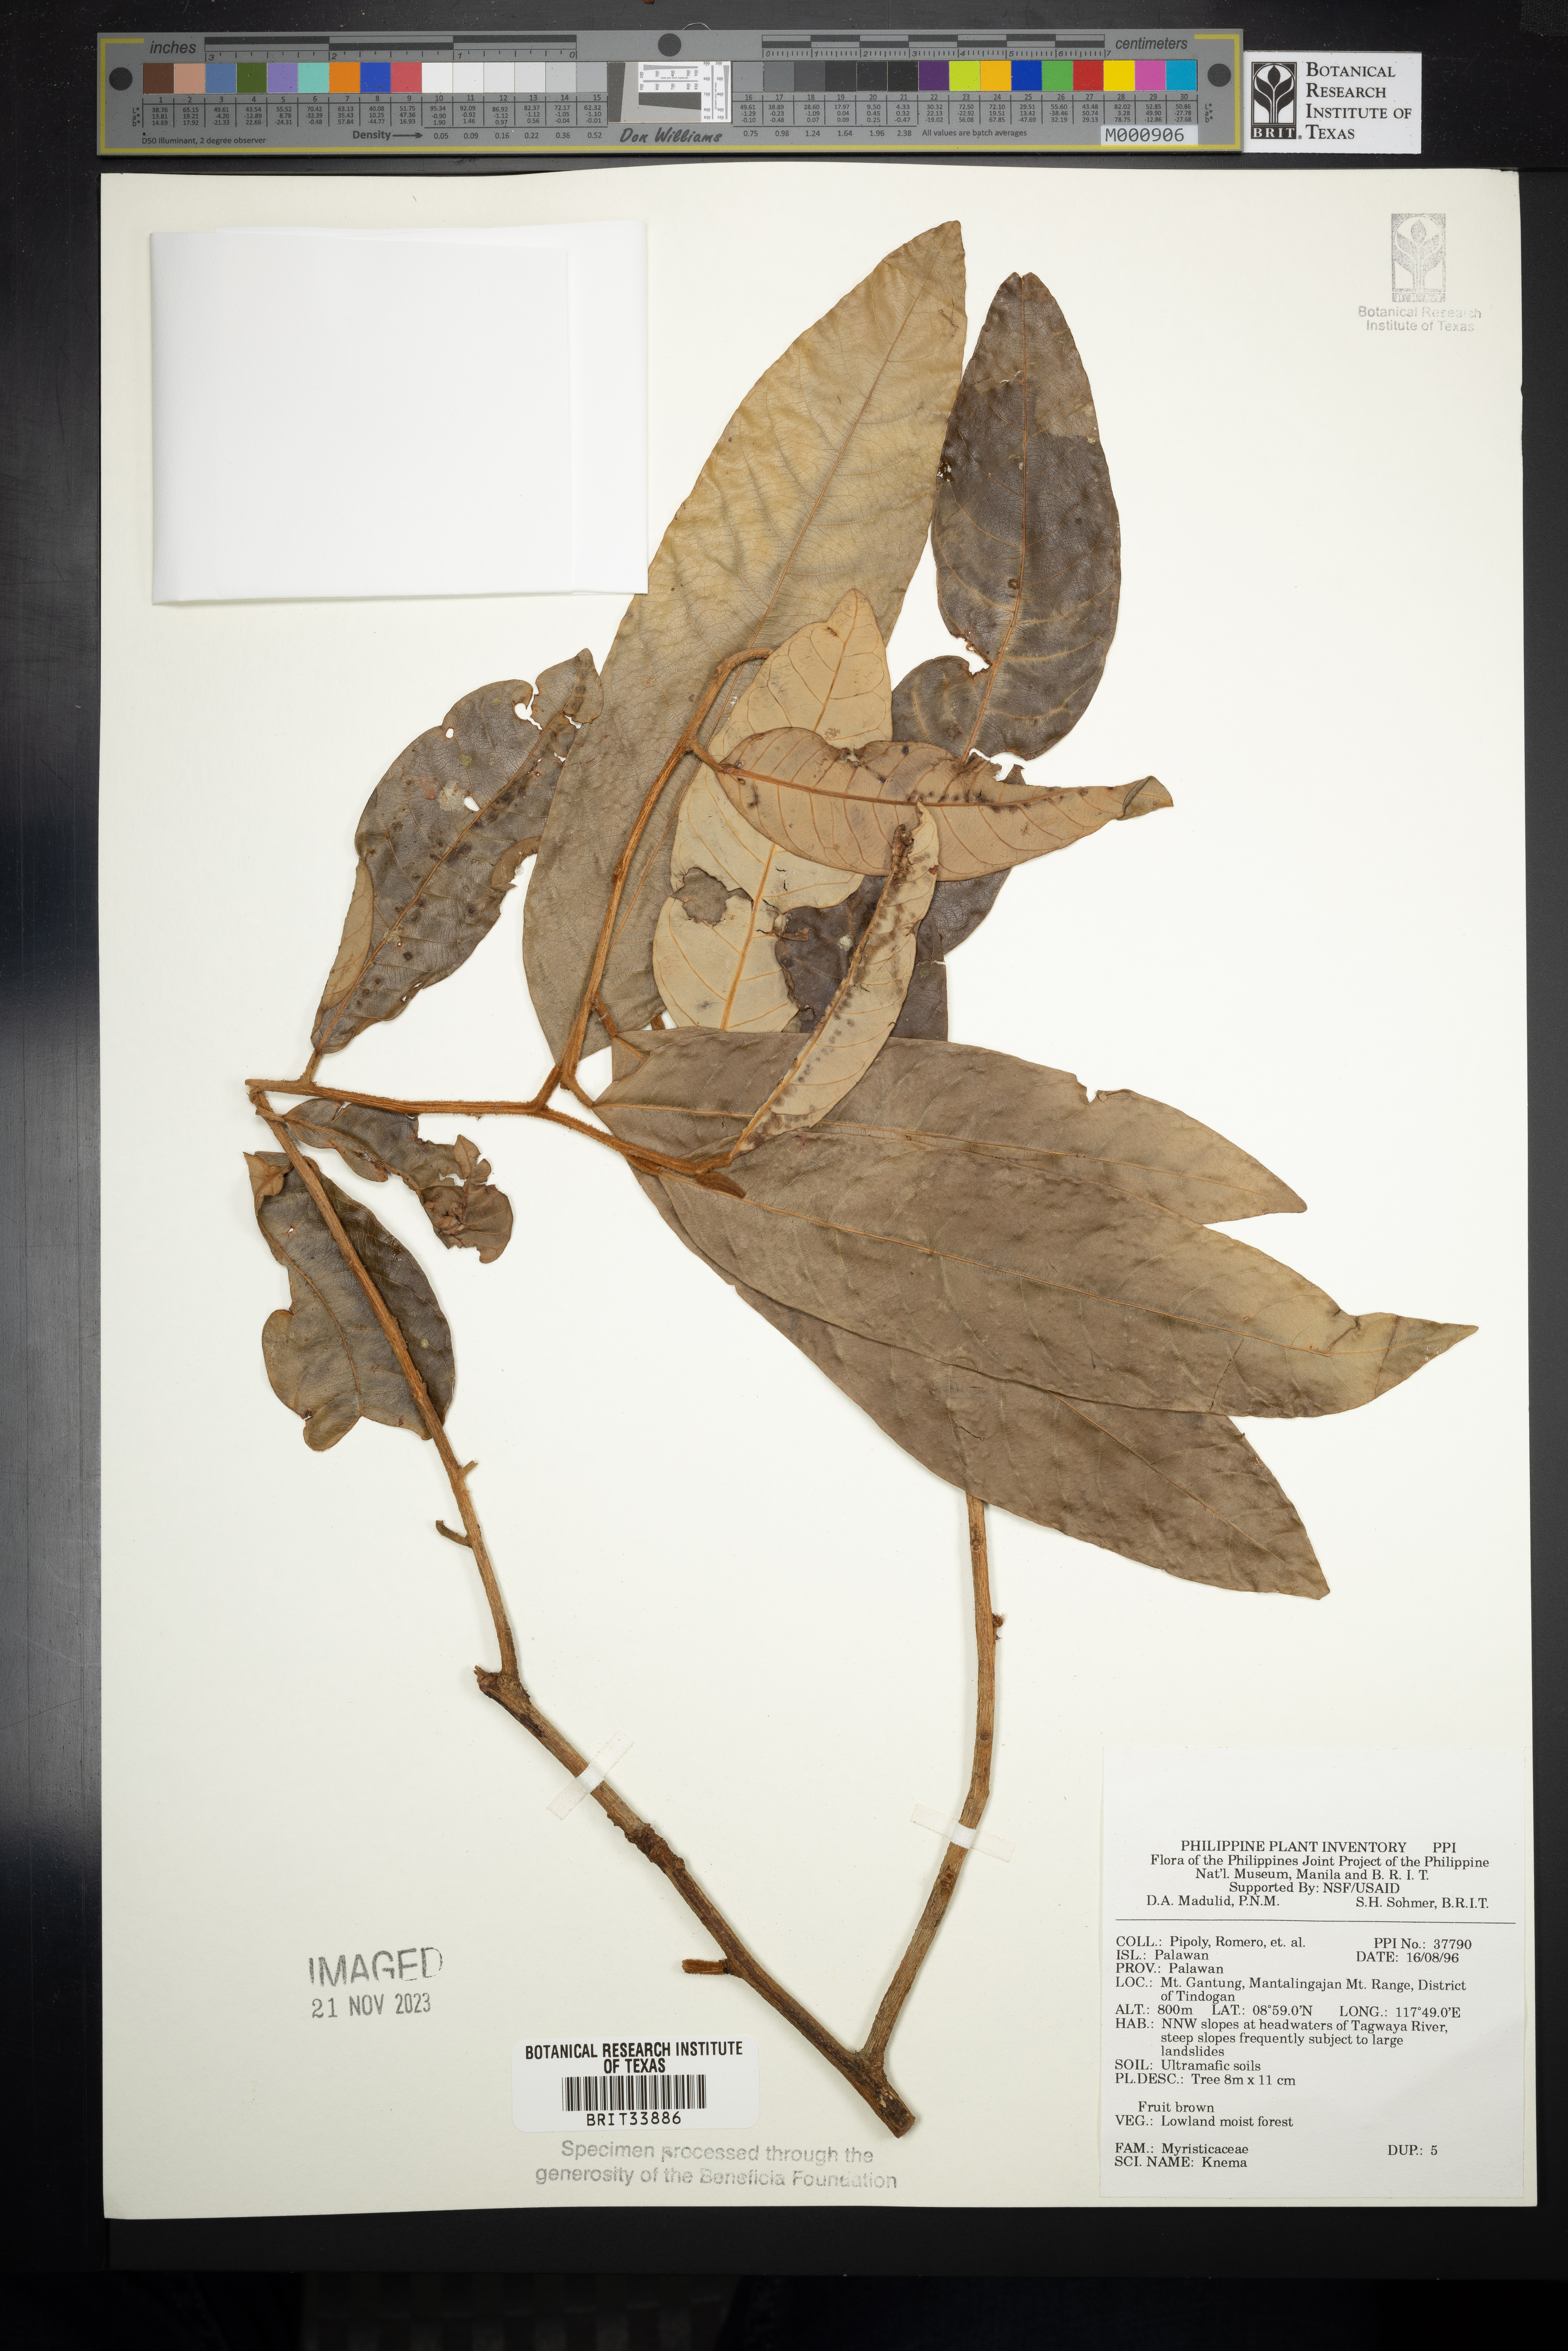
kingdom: Plantae
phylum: Tracheophyta
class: Magnoliopsida
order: Magnoliales
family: Myristicaceae
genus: Knema
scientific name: Knema
